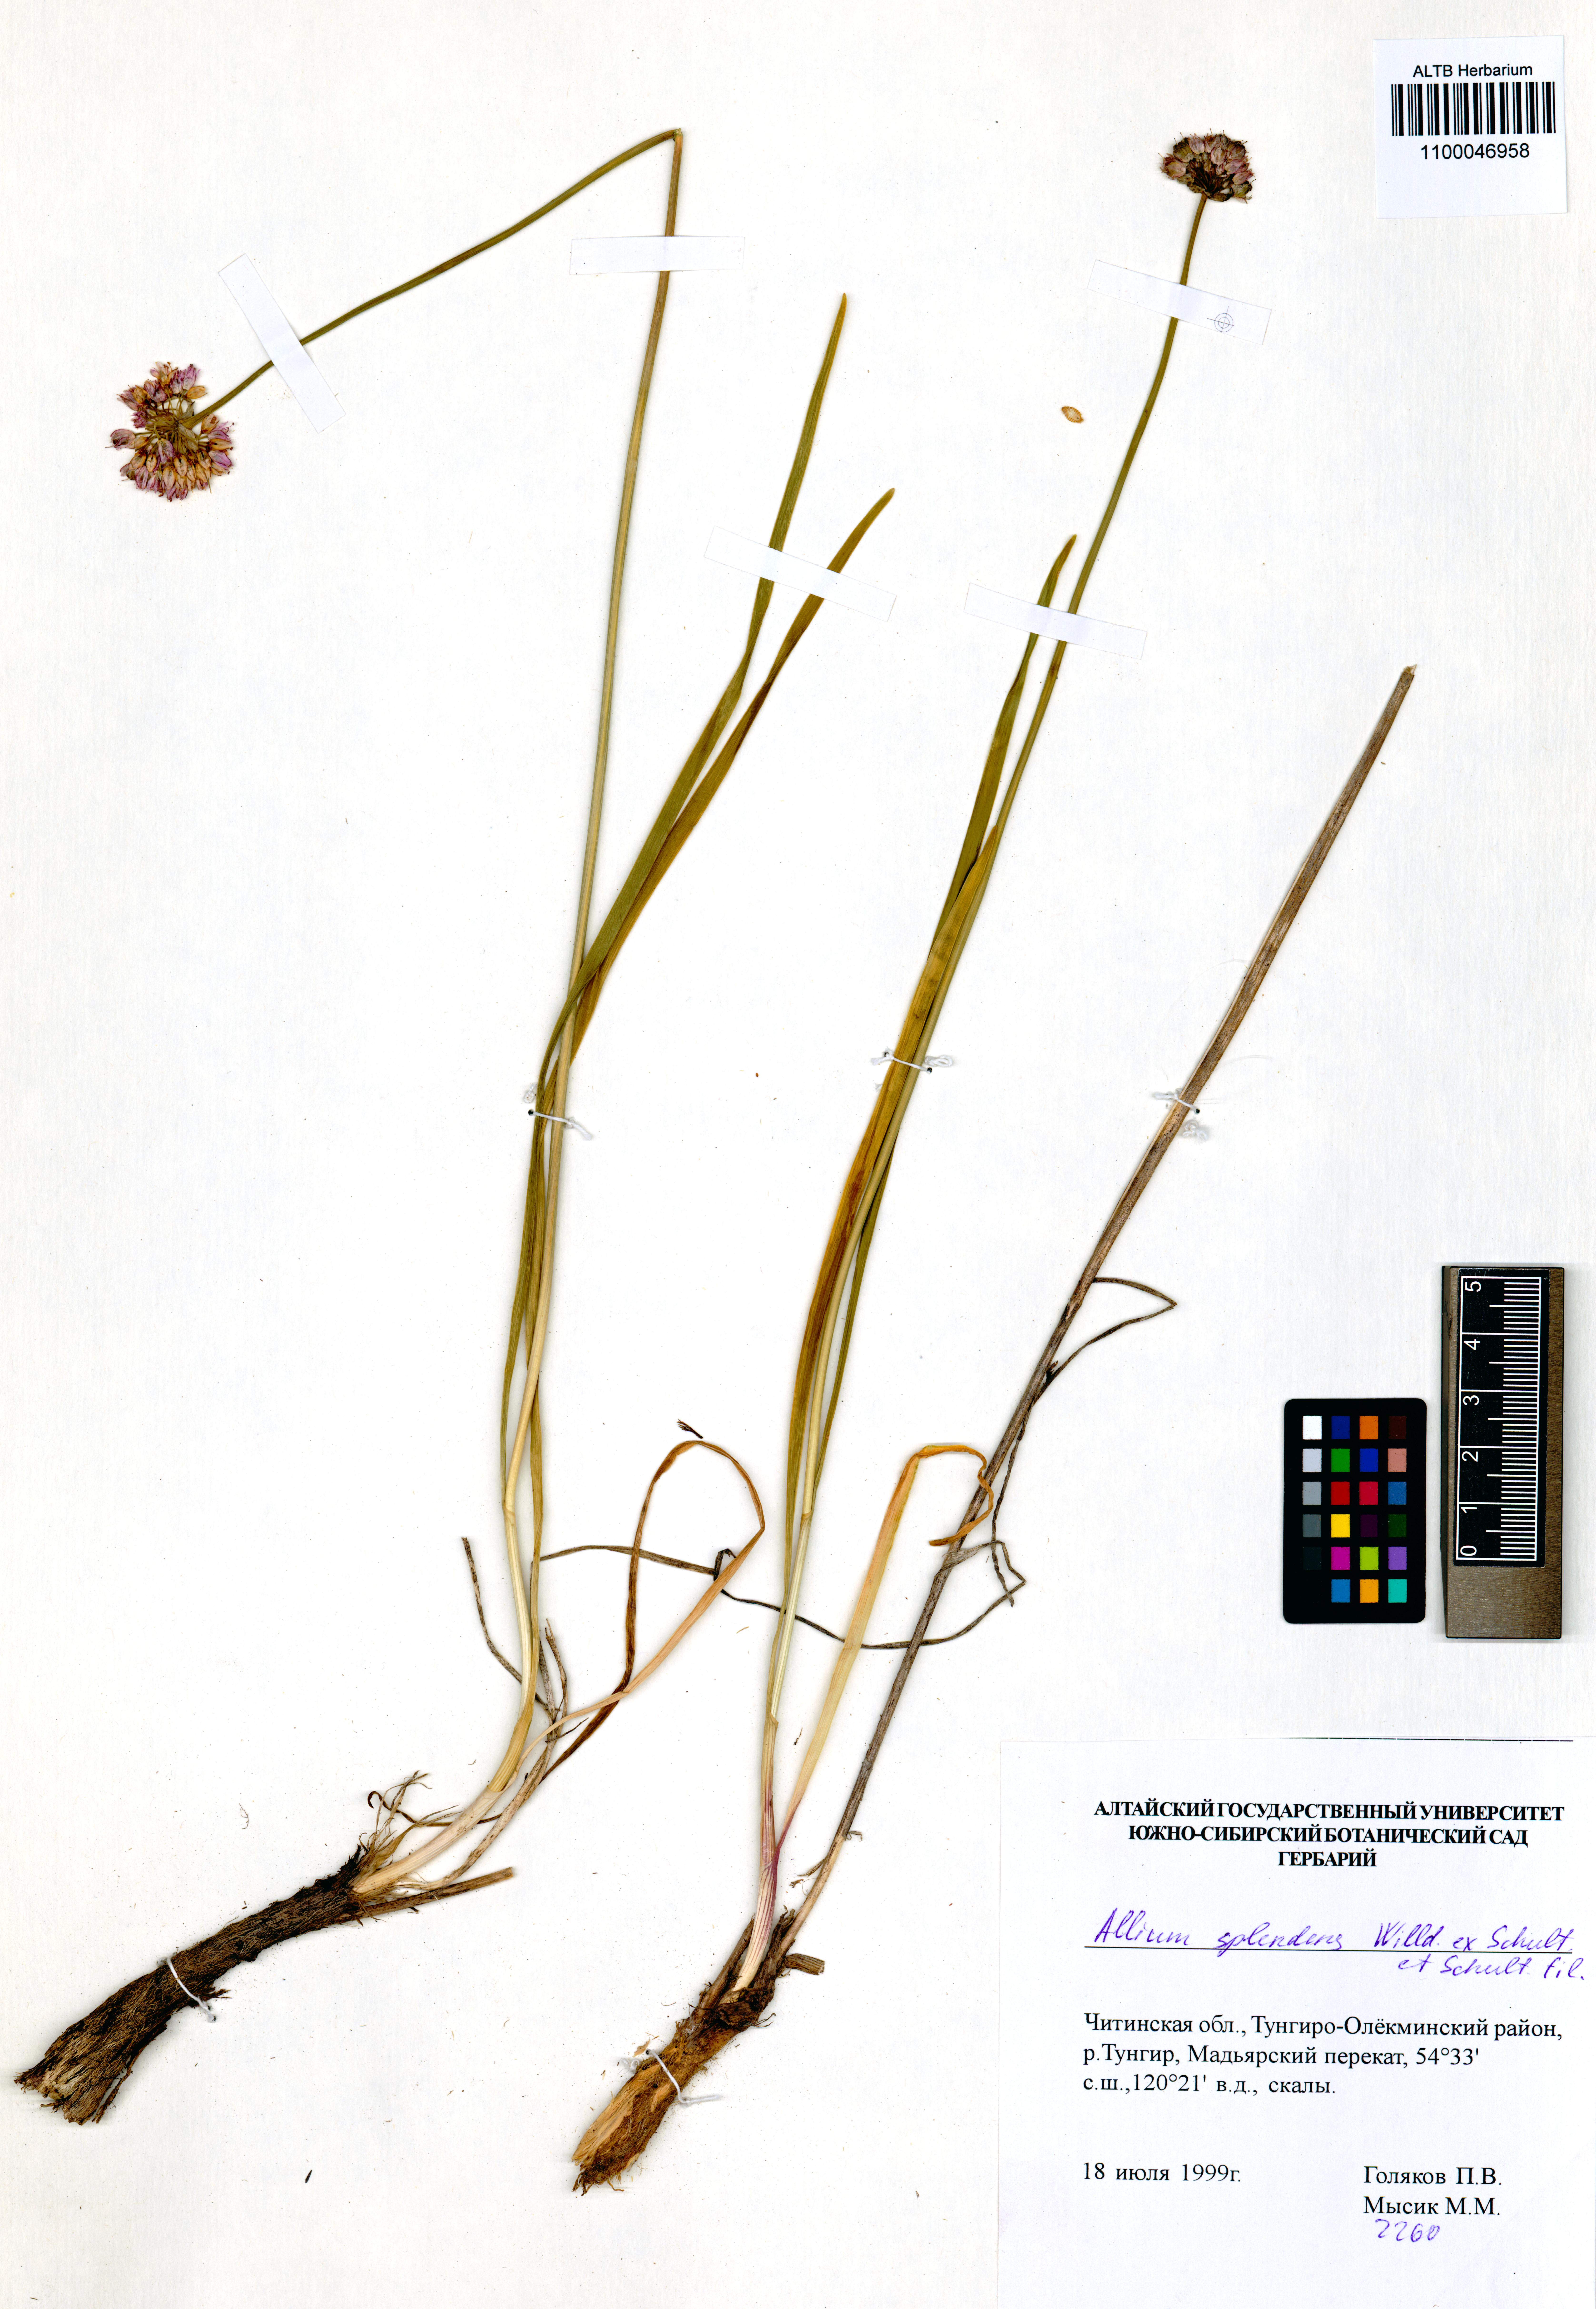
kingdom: Plantae
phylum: Tracheophyta
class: Liliopsida
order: Asparagales
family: Amaryllidaceae
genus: Allium
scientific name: Allium splendens
